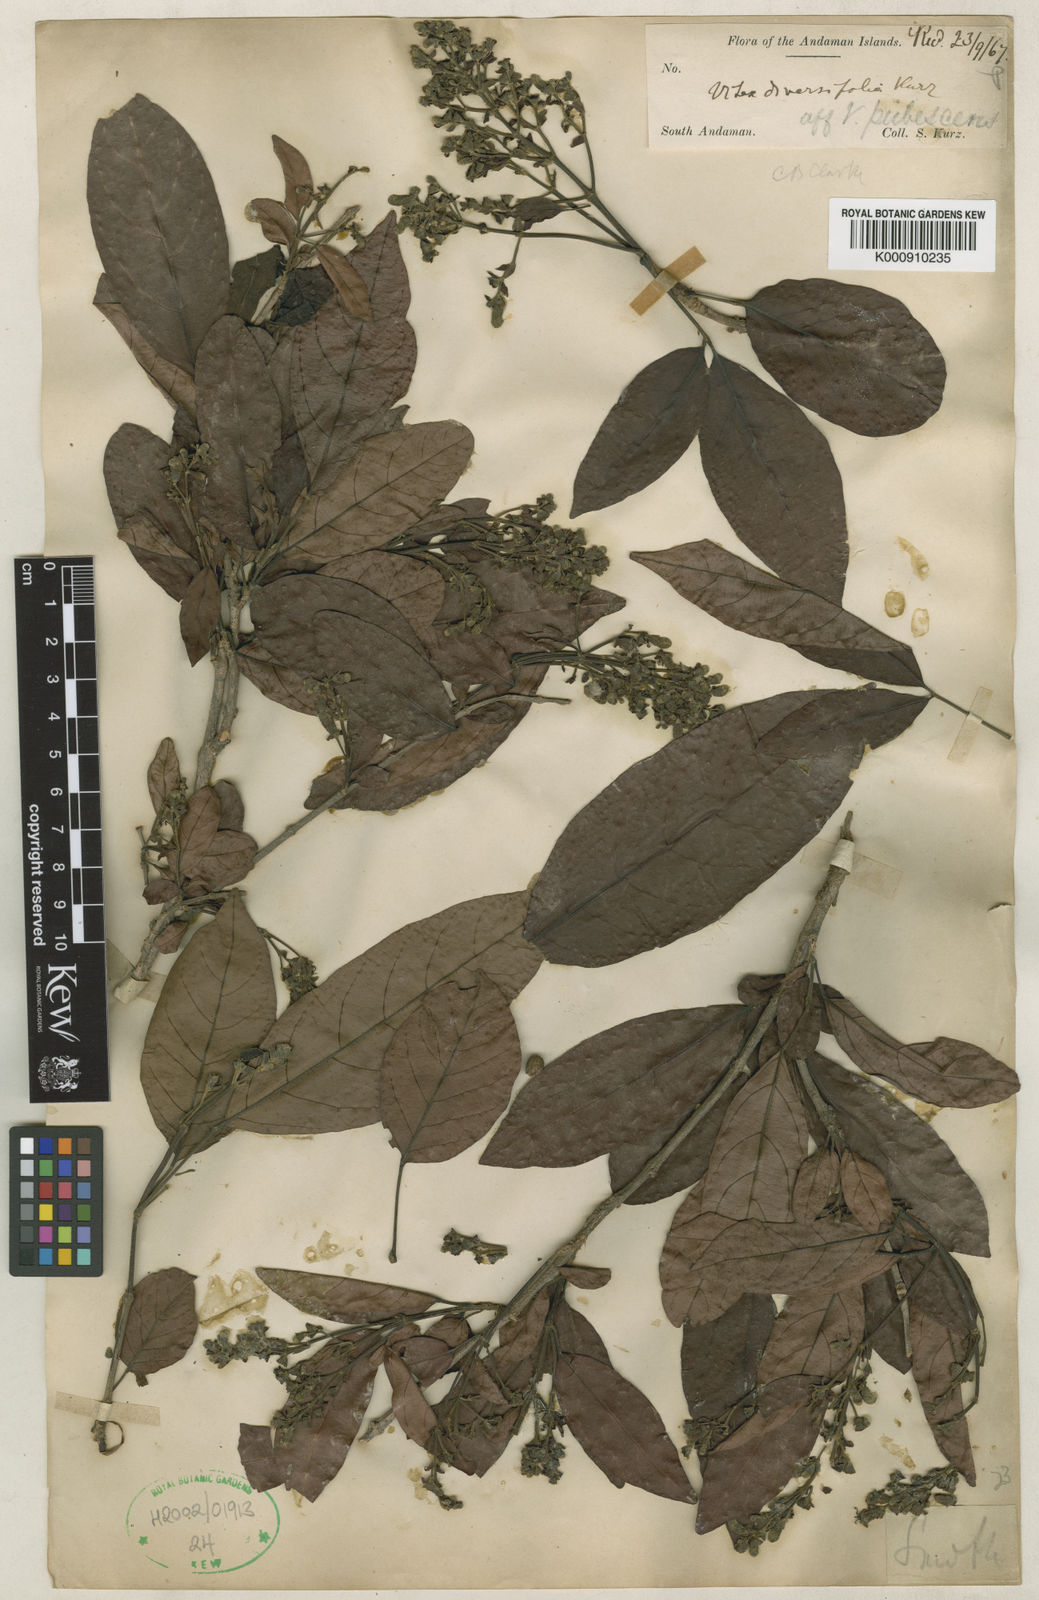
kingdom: Plantae
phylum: Tracheophyta
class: Magnoliopsida
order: Lamiales
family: Lamiaceae
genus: Vitex
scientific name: Vitex
